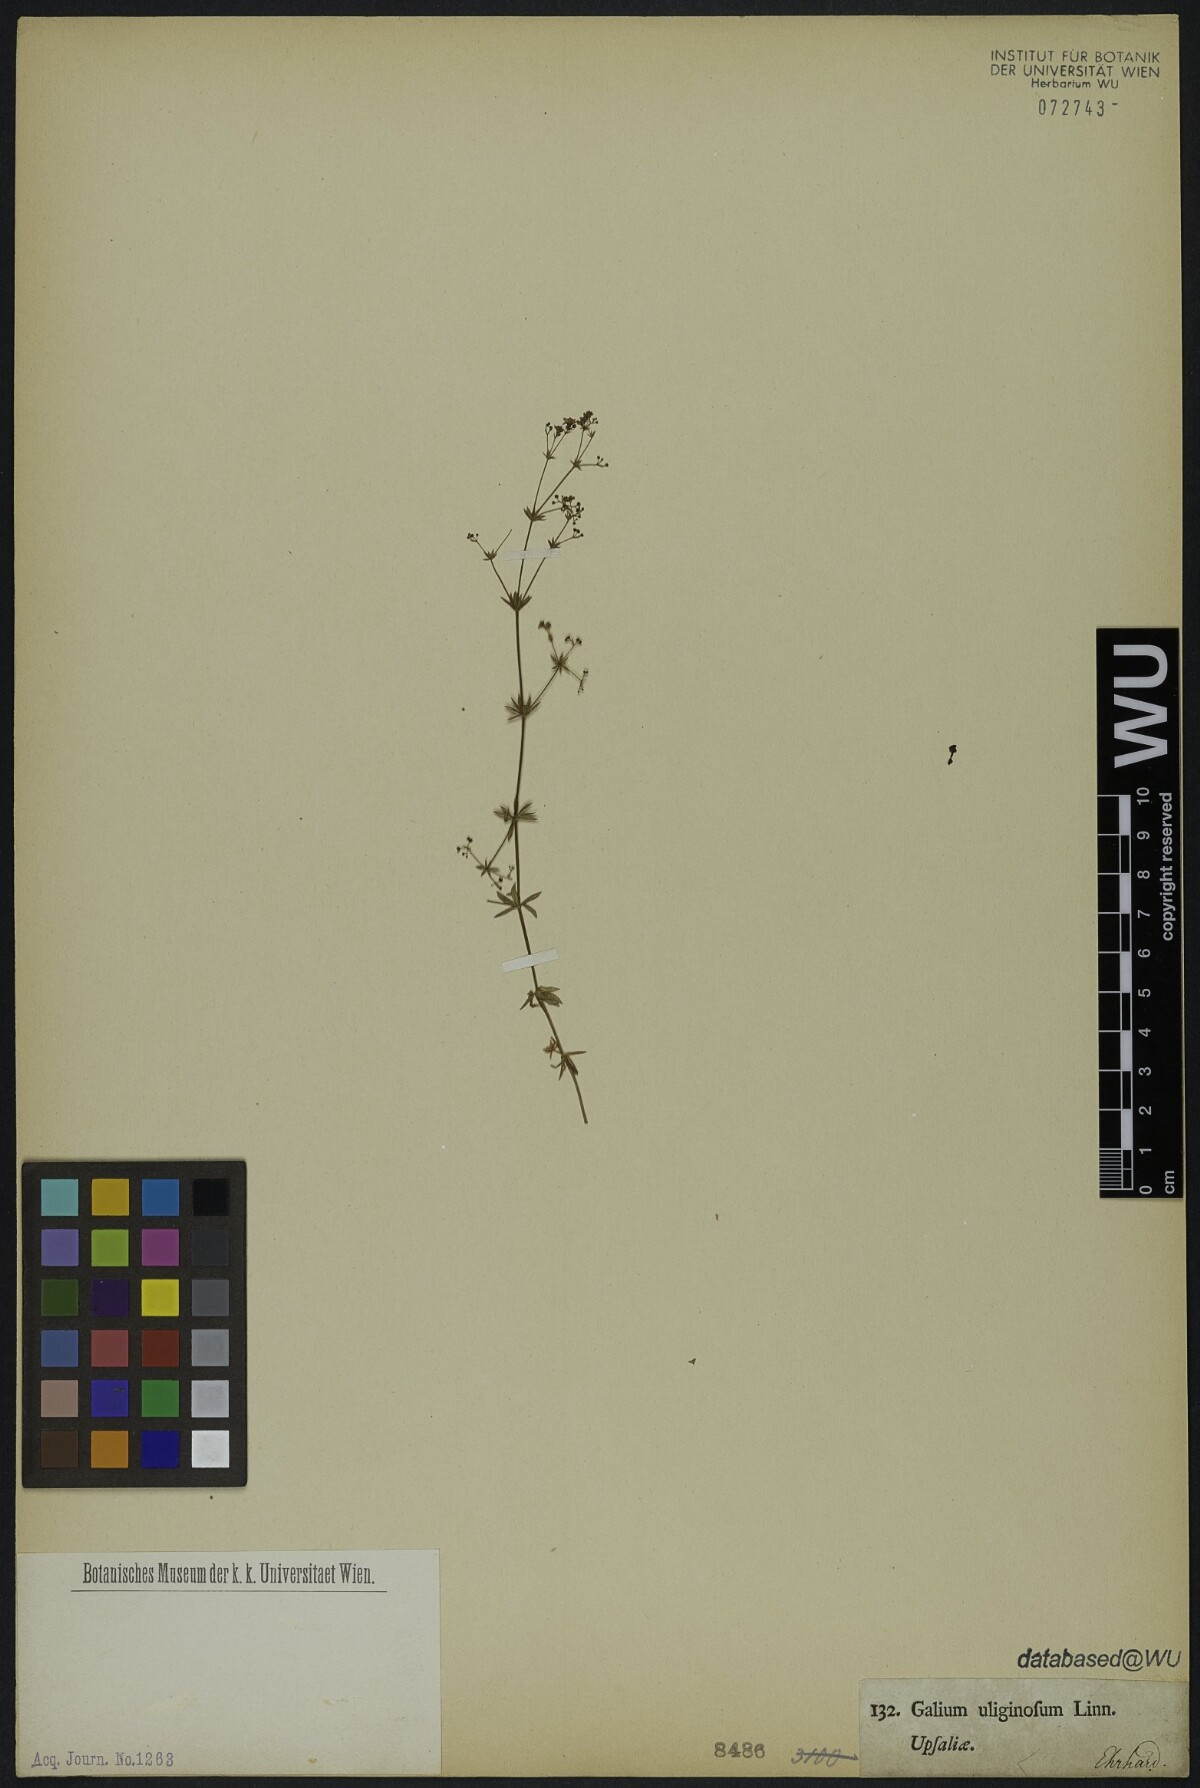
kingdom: Plantae
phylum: Tracheophyta
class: Magnoliopsida
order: Gentianales
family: Rubiaceae
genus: Galium
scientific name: Galium uliginosum
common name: Fen bedstraw
